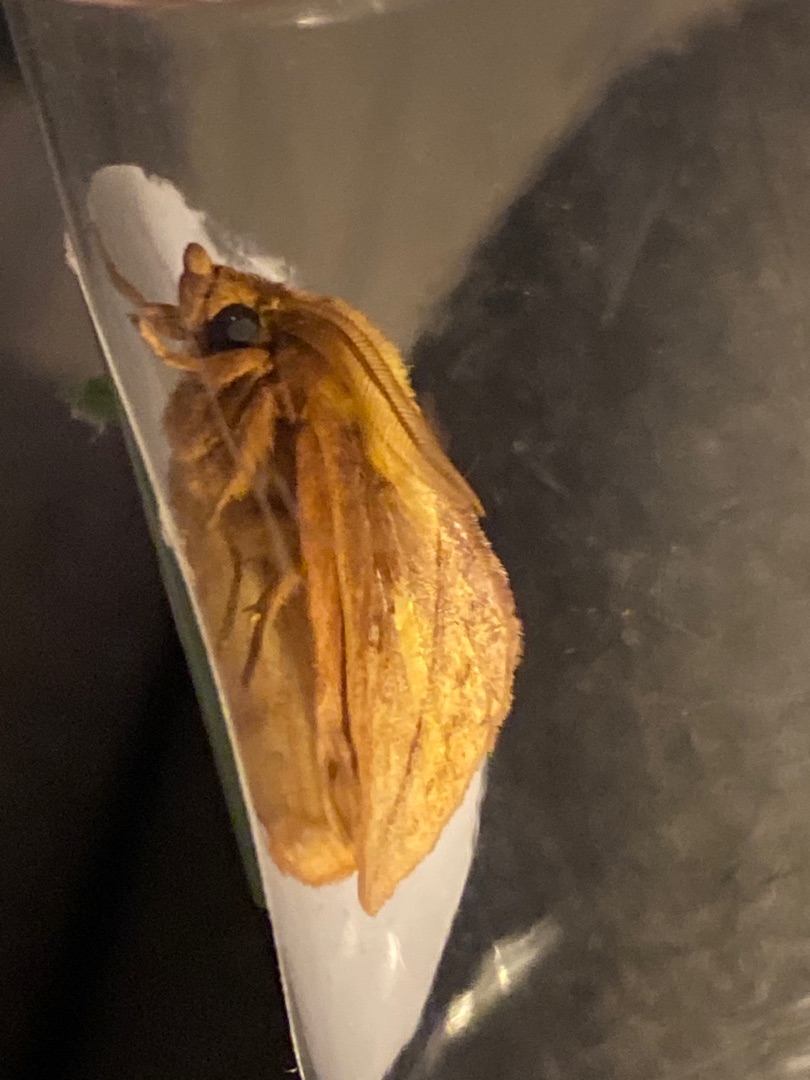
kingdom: Animalia
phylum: Arthropoda
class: Insecta
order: Lepidoptera
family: Lasiocampidae
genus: Euthrix
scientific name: Euthrix potatoria
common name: Græsspinder
